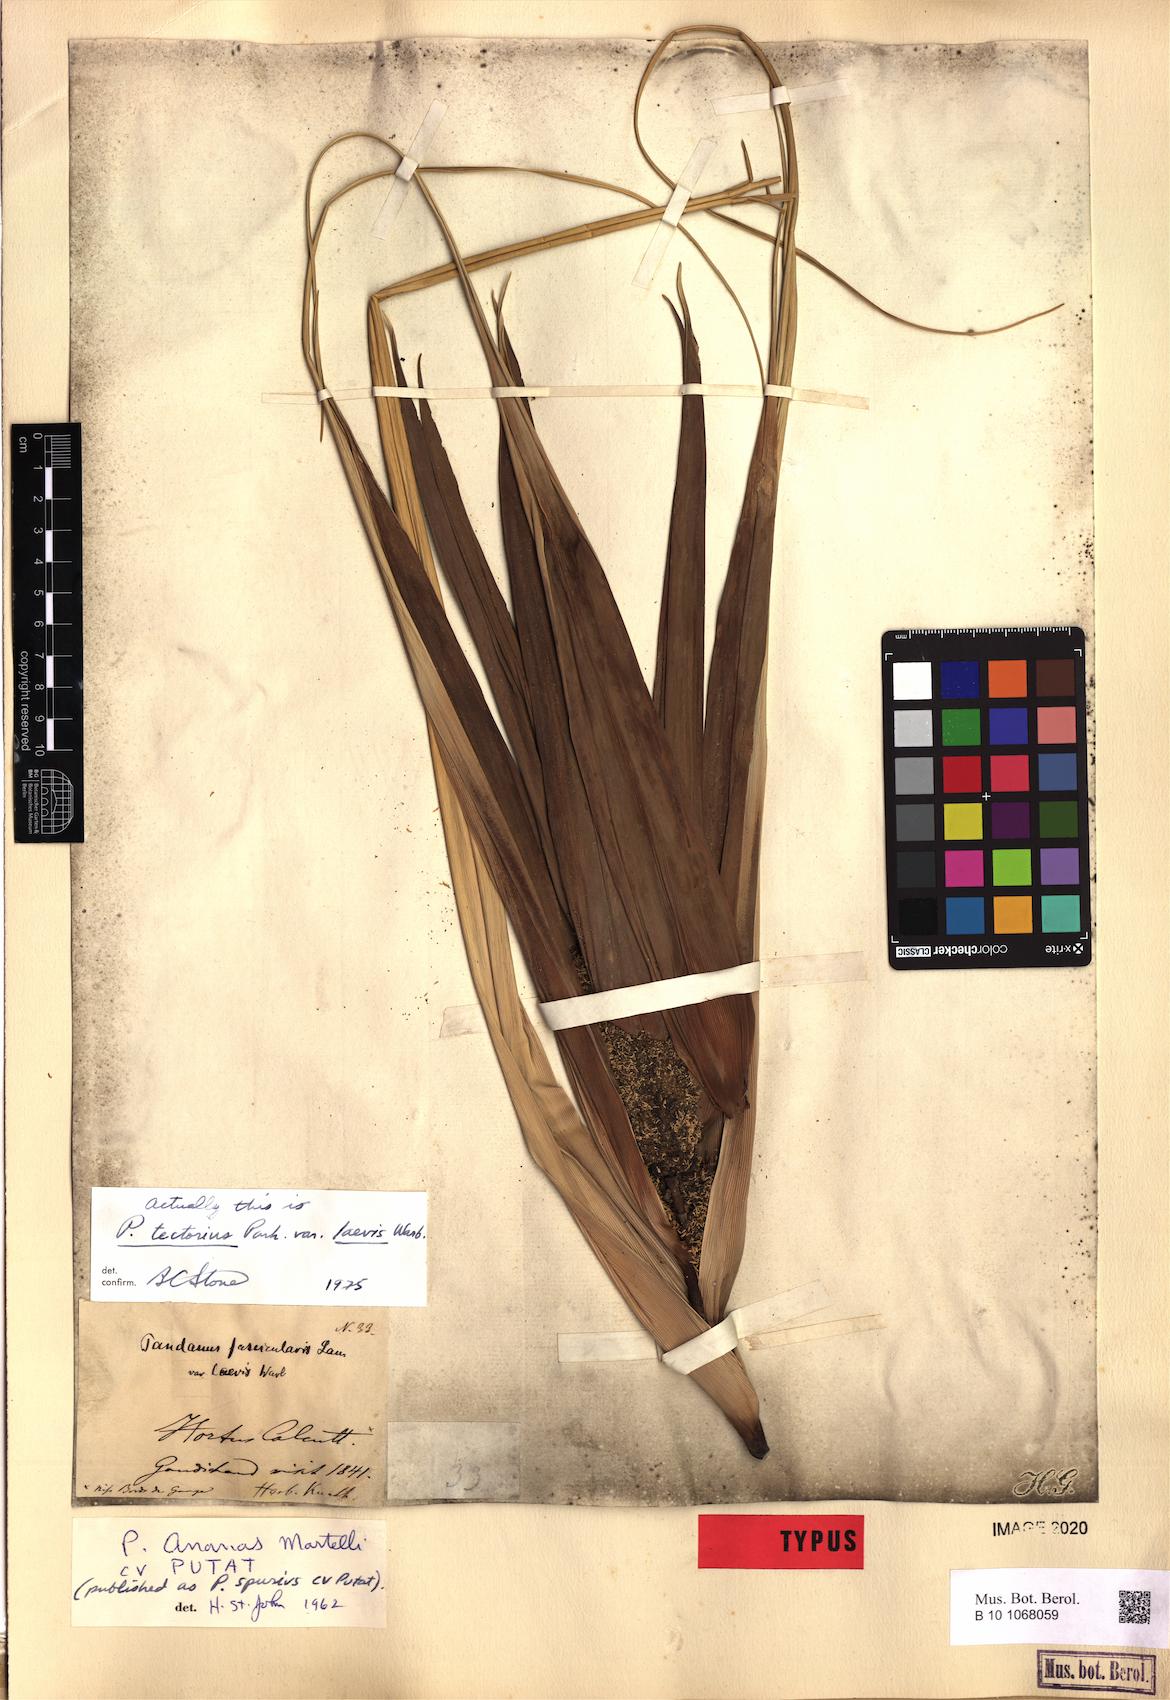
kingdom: Plantae
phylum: Tracheophyta
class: Liliopsida
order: Pandanales
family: Pandanaceae
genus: Pandanus
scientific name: Pandanus tectorius
